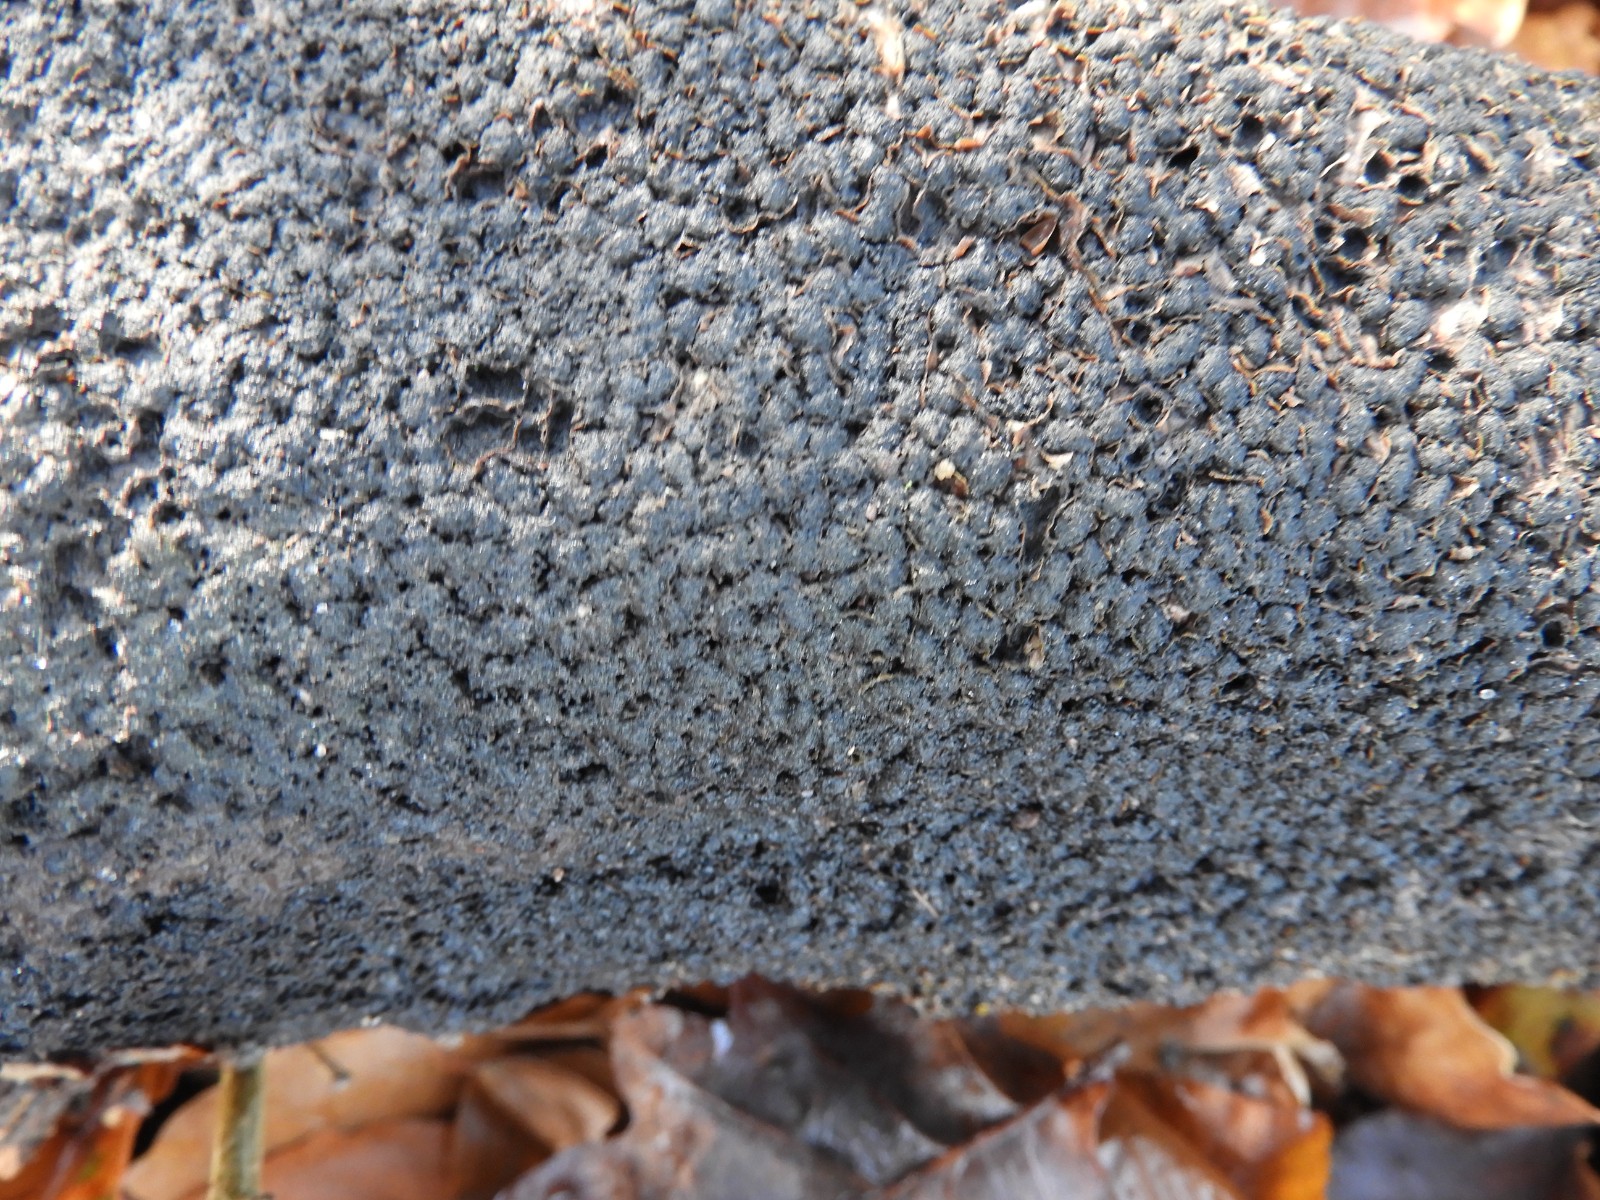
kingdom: Fungi
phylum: Ascomycota
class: Sordariomycetes
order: Xylariales
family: Melogrammataceae
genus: Melogramma
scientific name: Melogramma spiniferum
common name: bøgefod-kulhals
